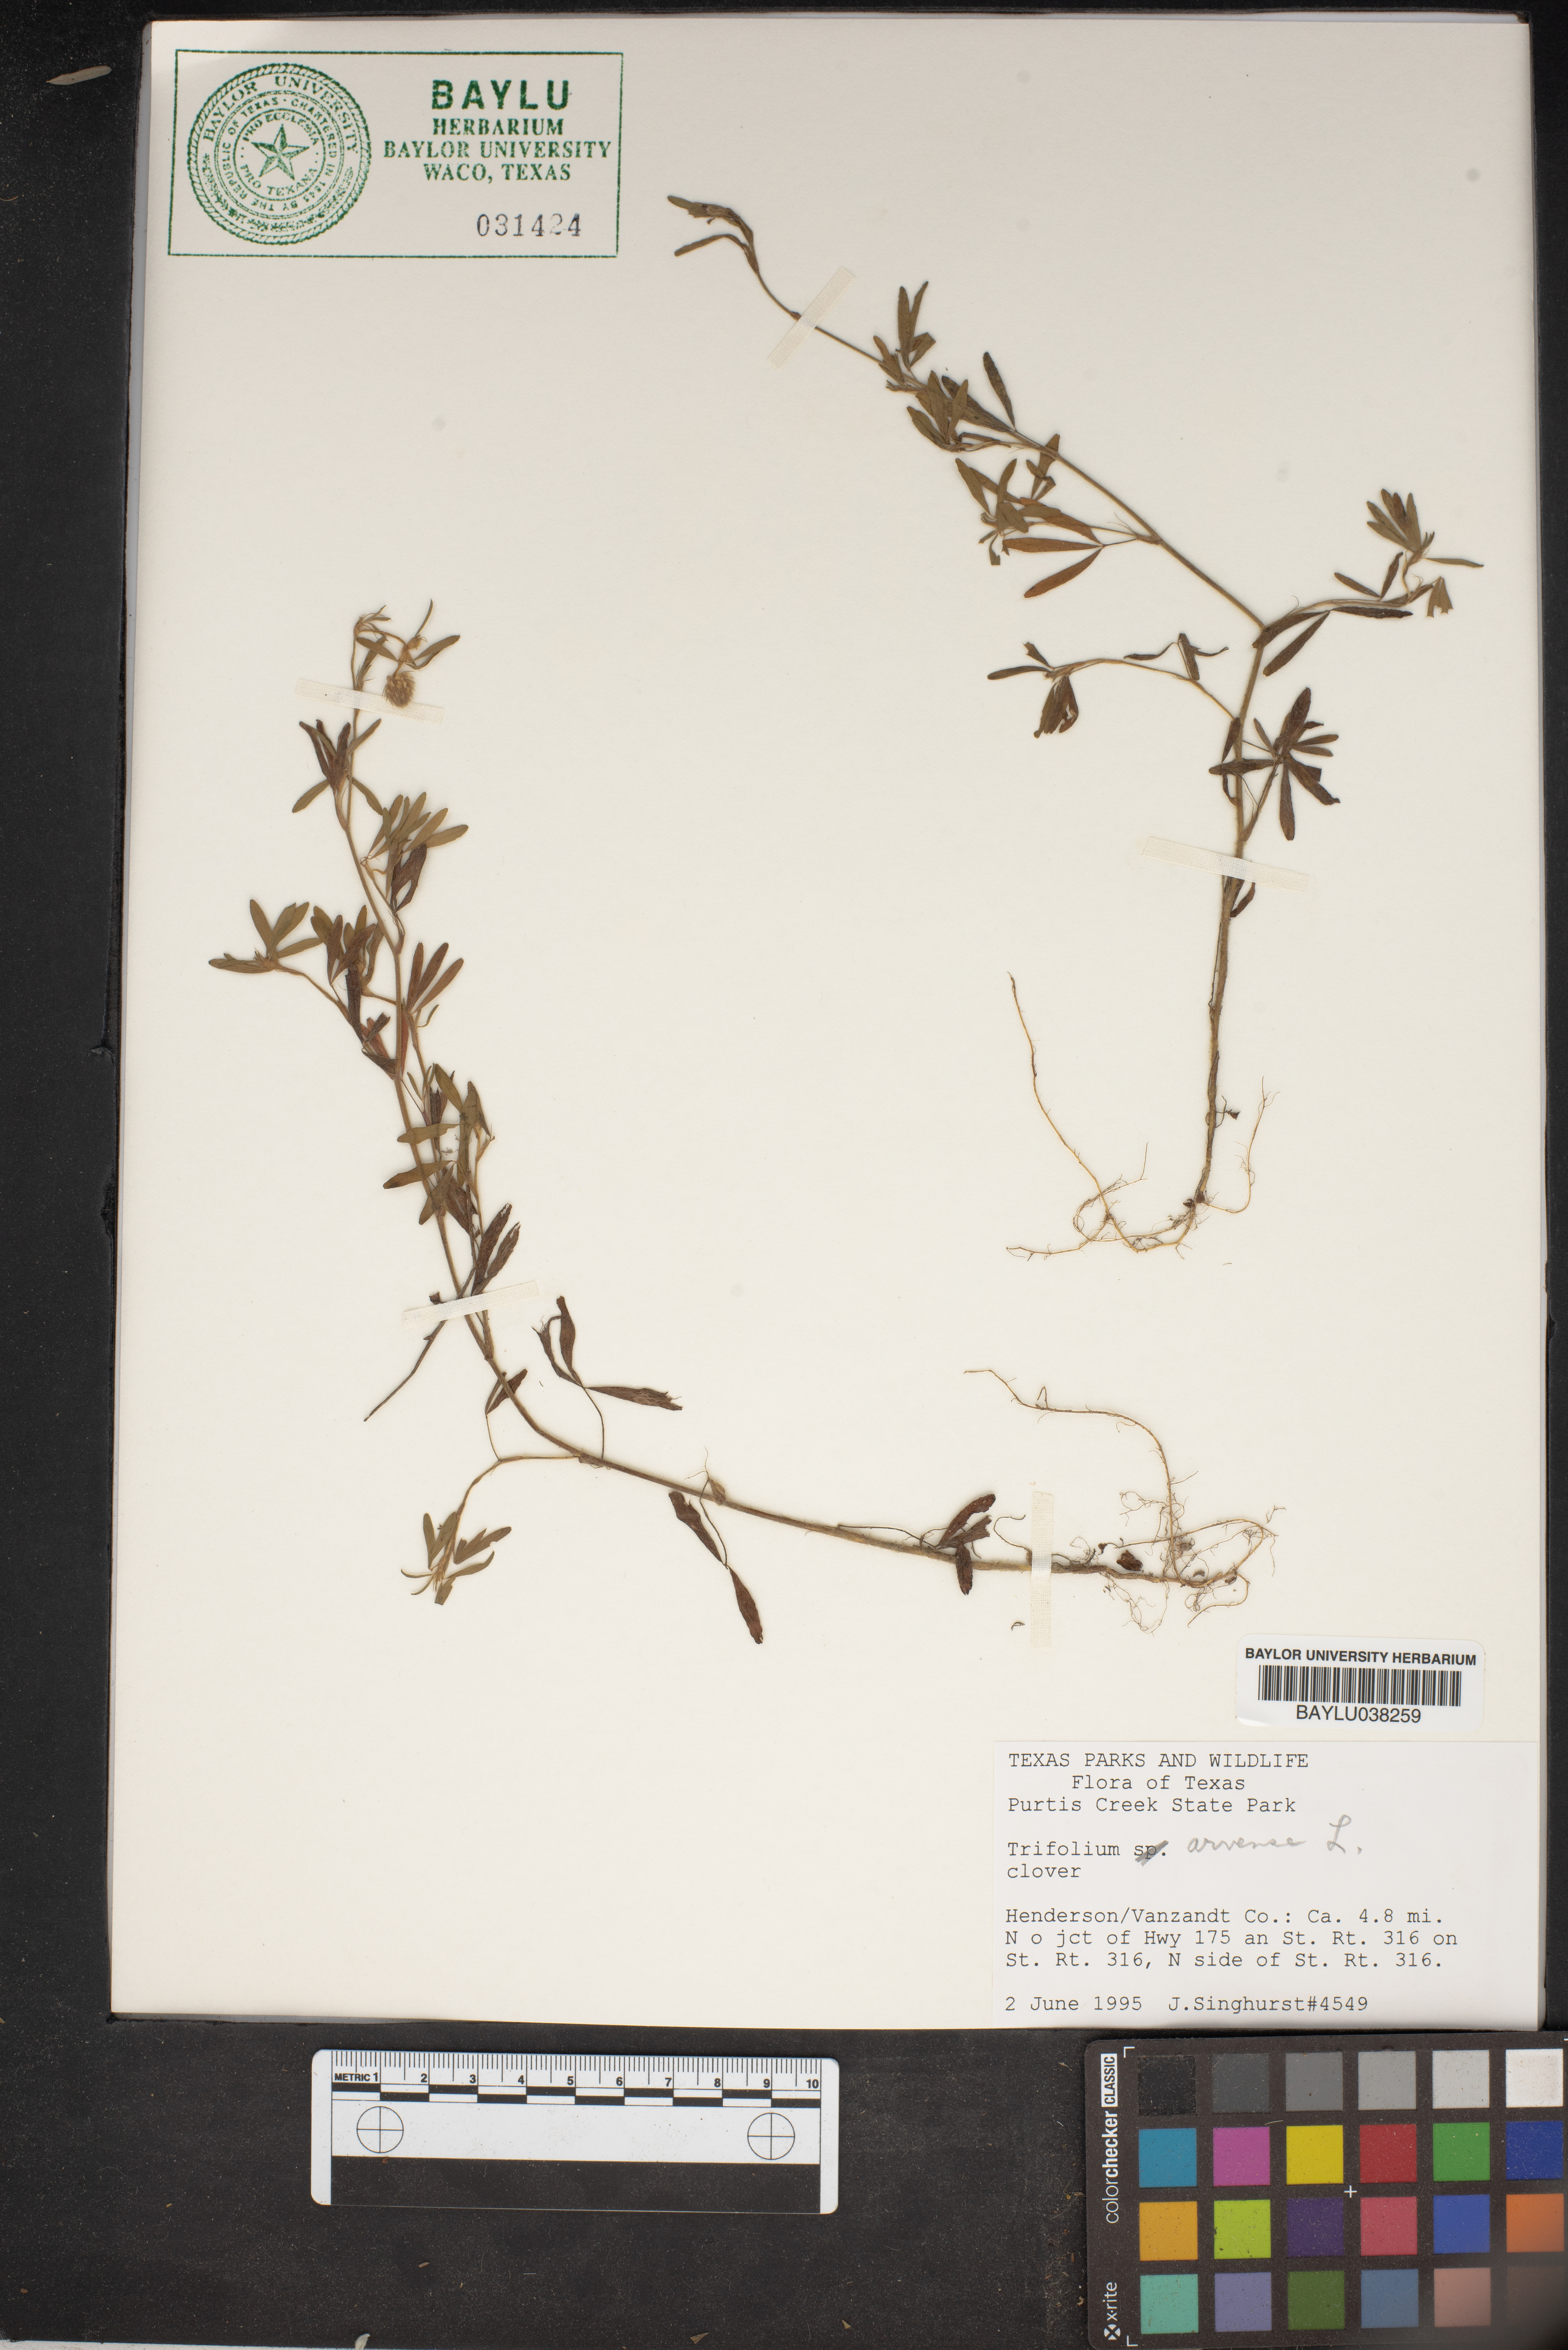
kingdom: Plantae
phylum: Tracheophyta
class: Magnoliopsida
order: Fabales
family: Fabaceae
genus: Trifolium
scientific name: Trifolium arvense
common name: Hare's-foot clover
